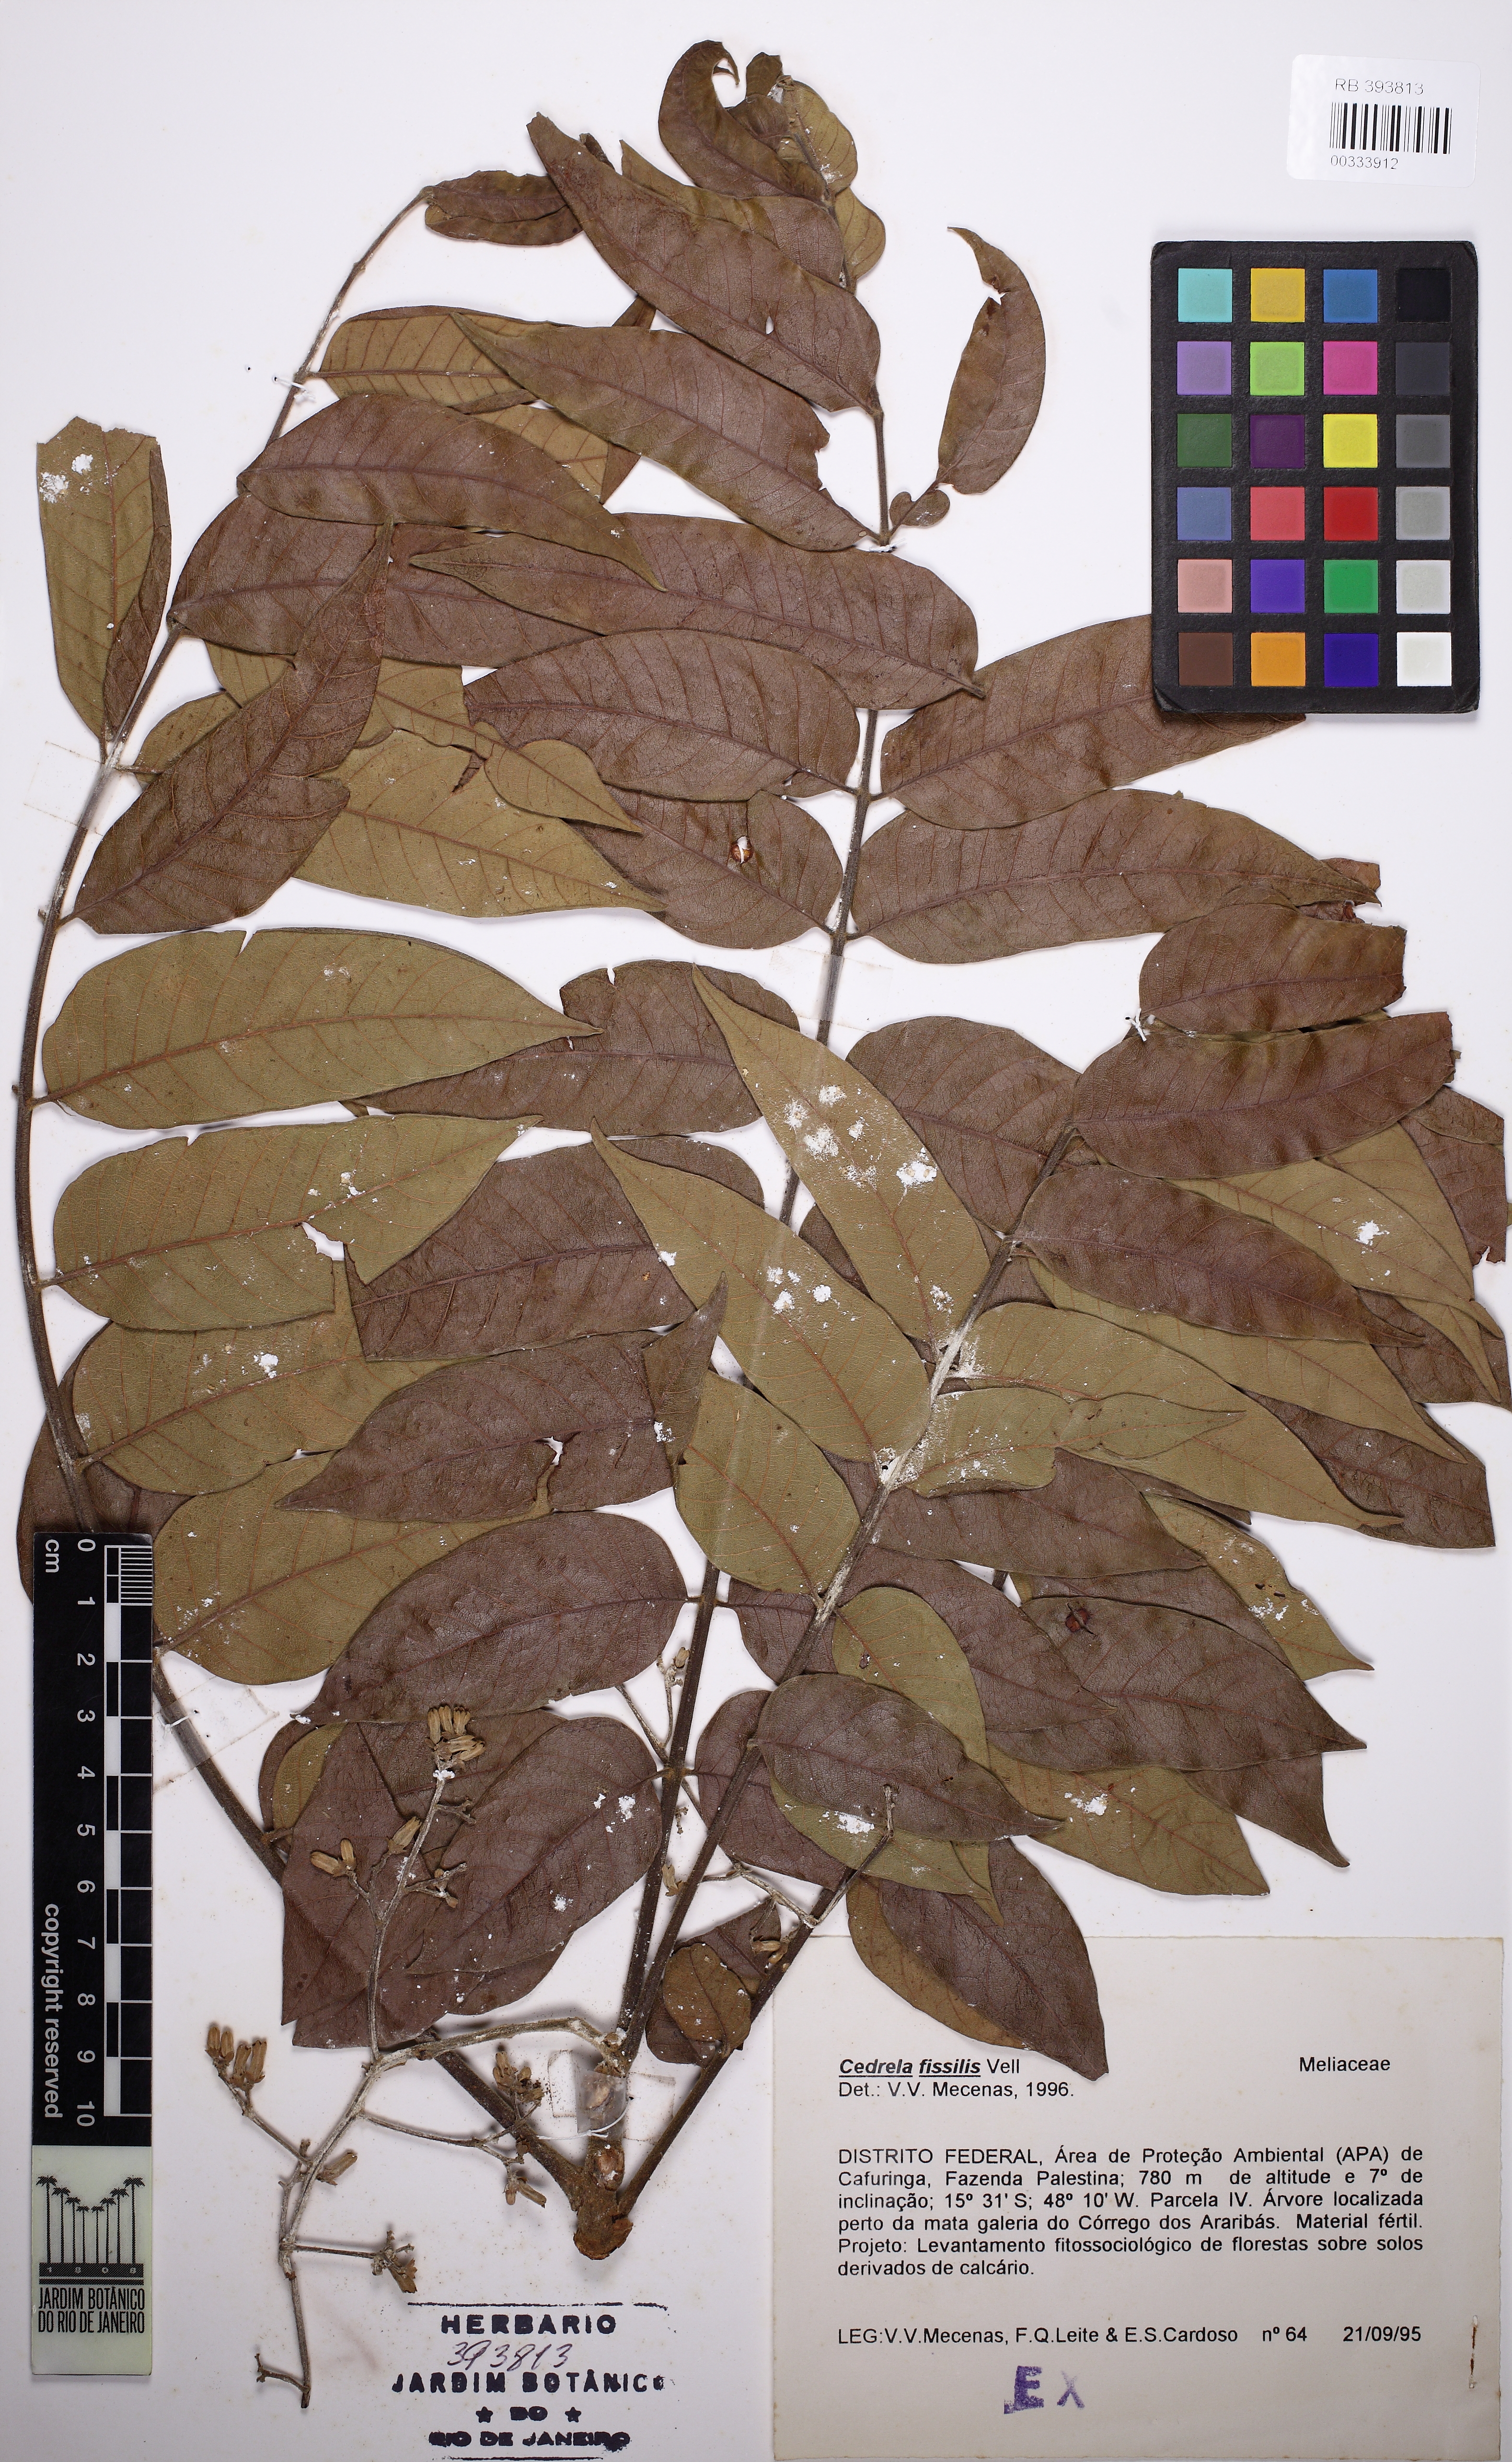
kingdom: Plantae
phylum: Tracheophyta
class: Magnoliopsida
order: Sapindales
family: Meliaceae
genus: Cedrela
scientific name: Cedrela fissilis
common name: Argentine cedar
